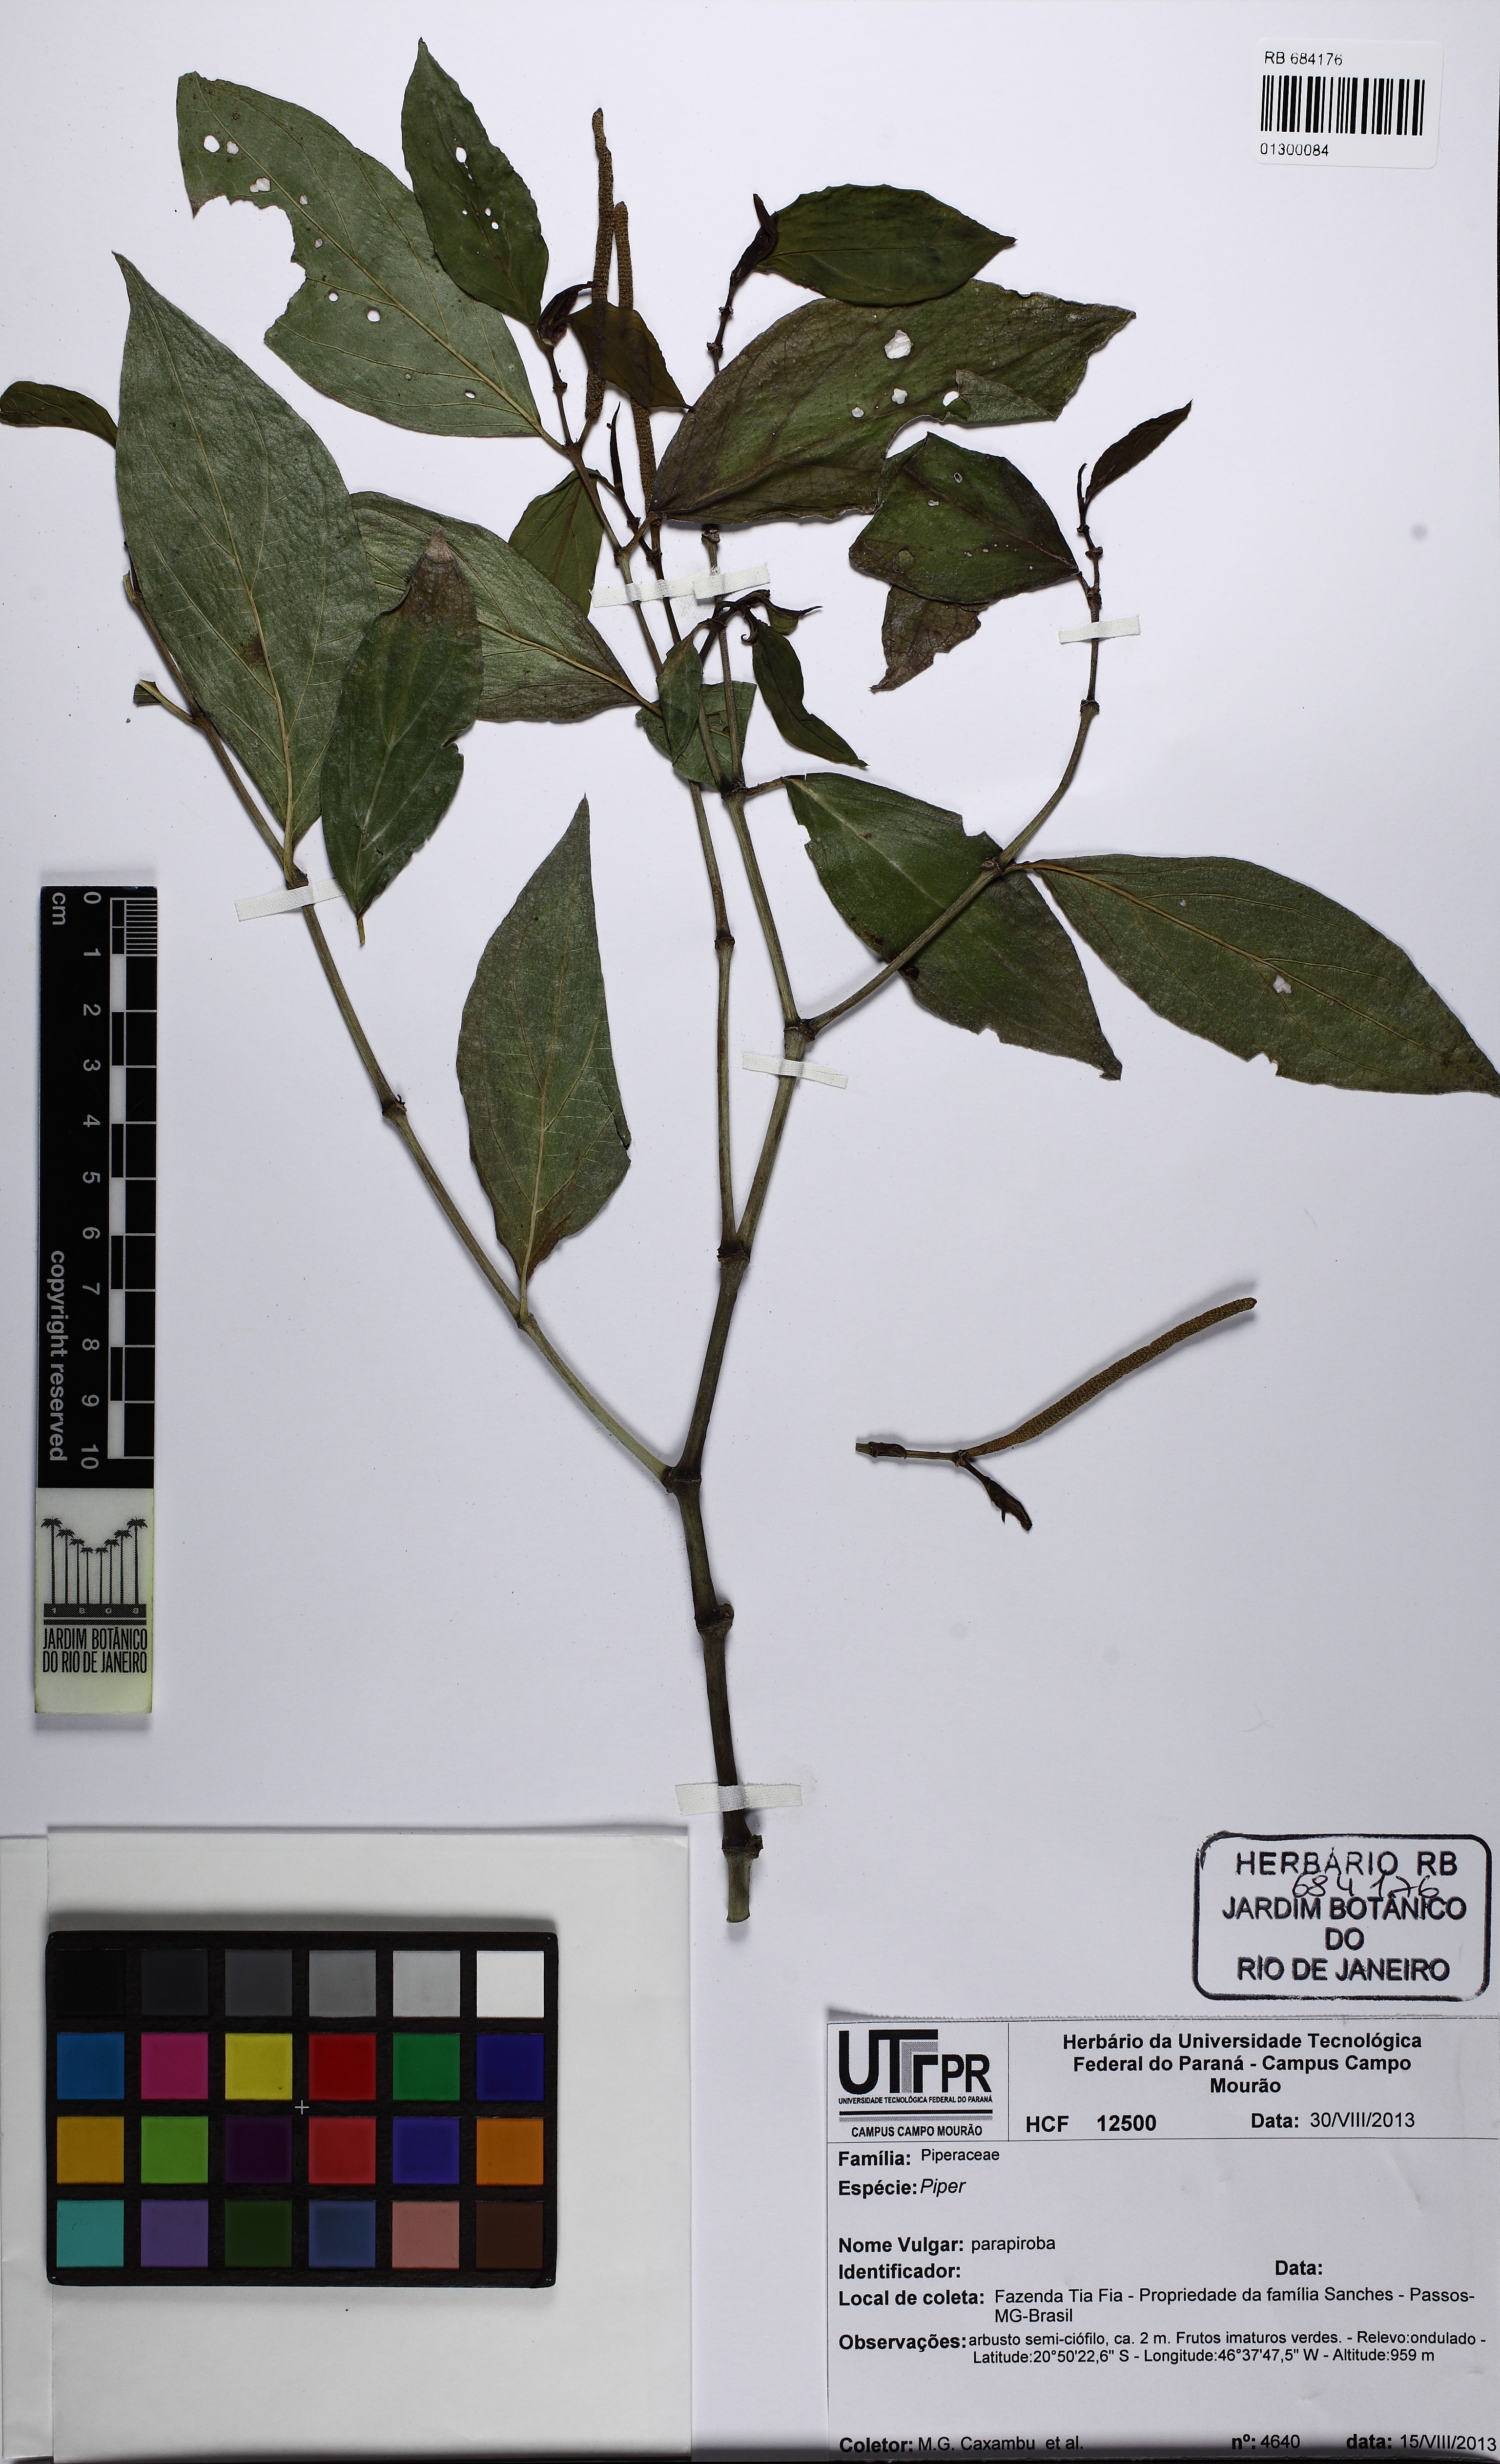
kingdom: Plantae
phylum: Tracheophyta
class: Magnoliopsida
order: Piperales
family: Piperaceae
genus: Piper
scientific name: Piper
